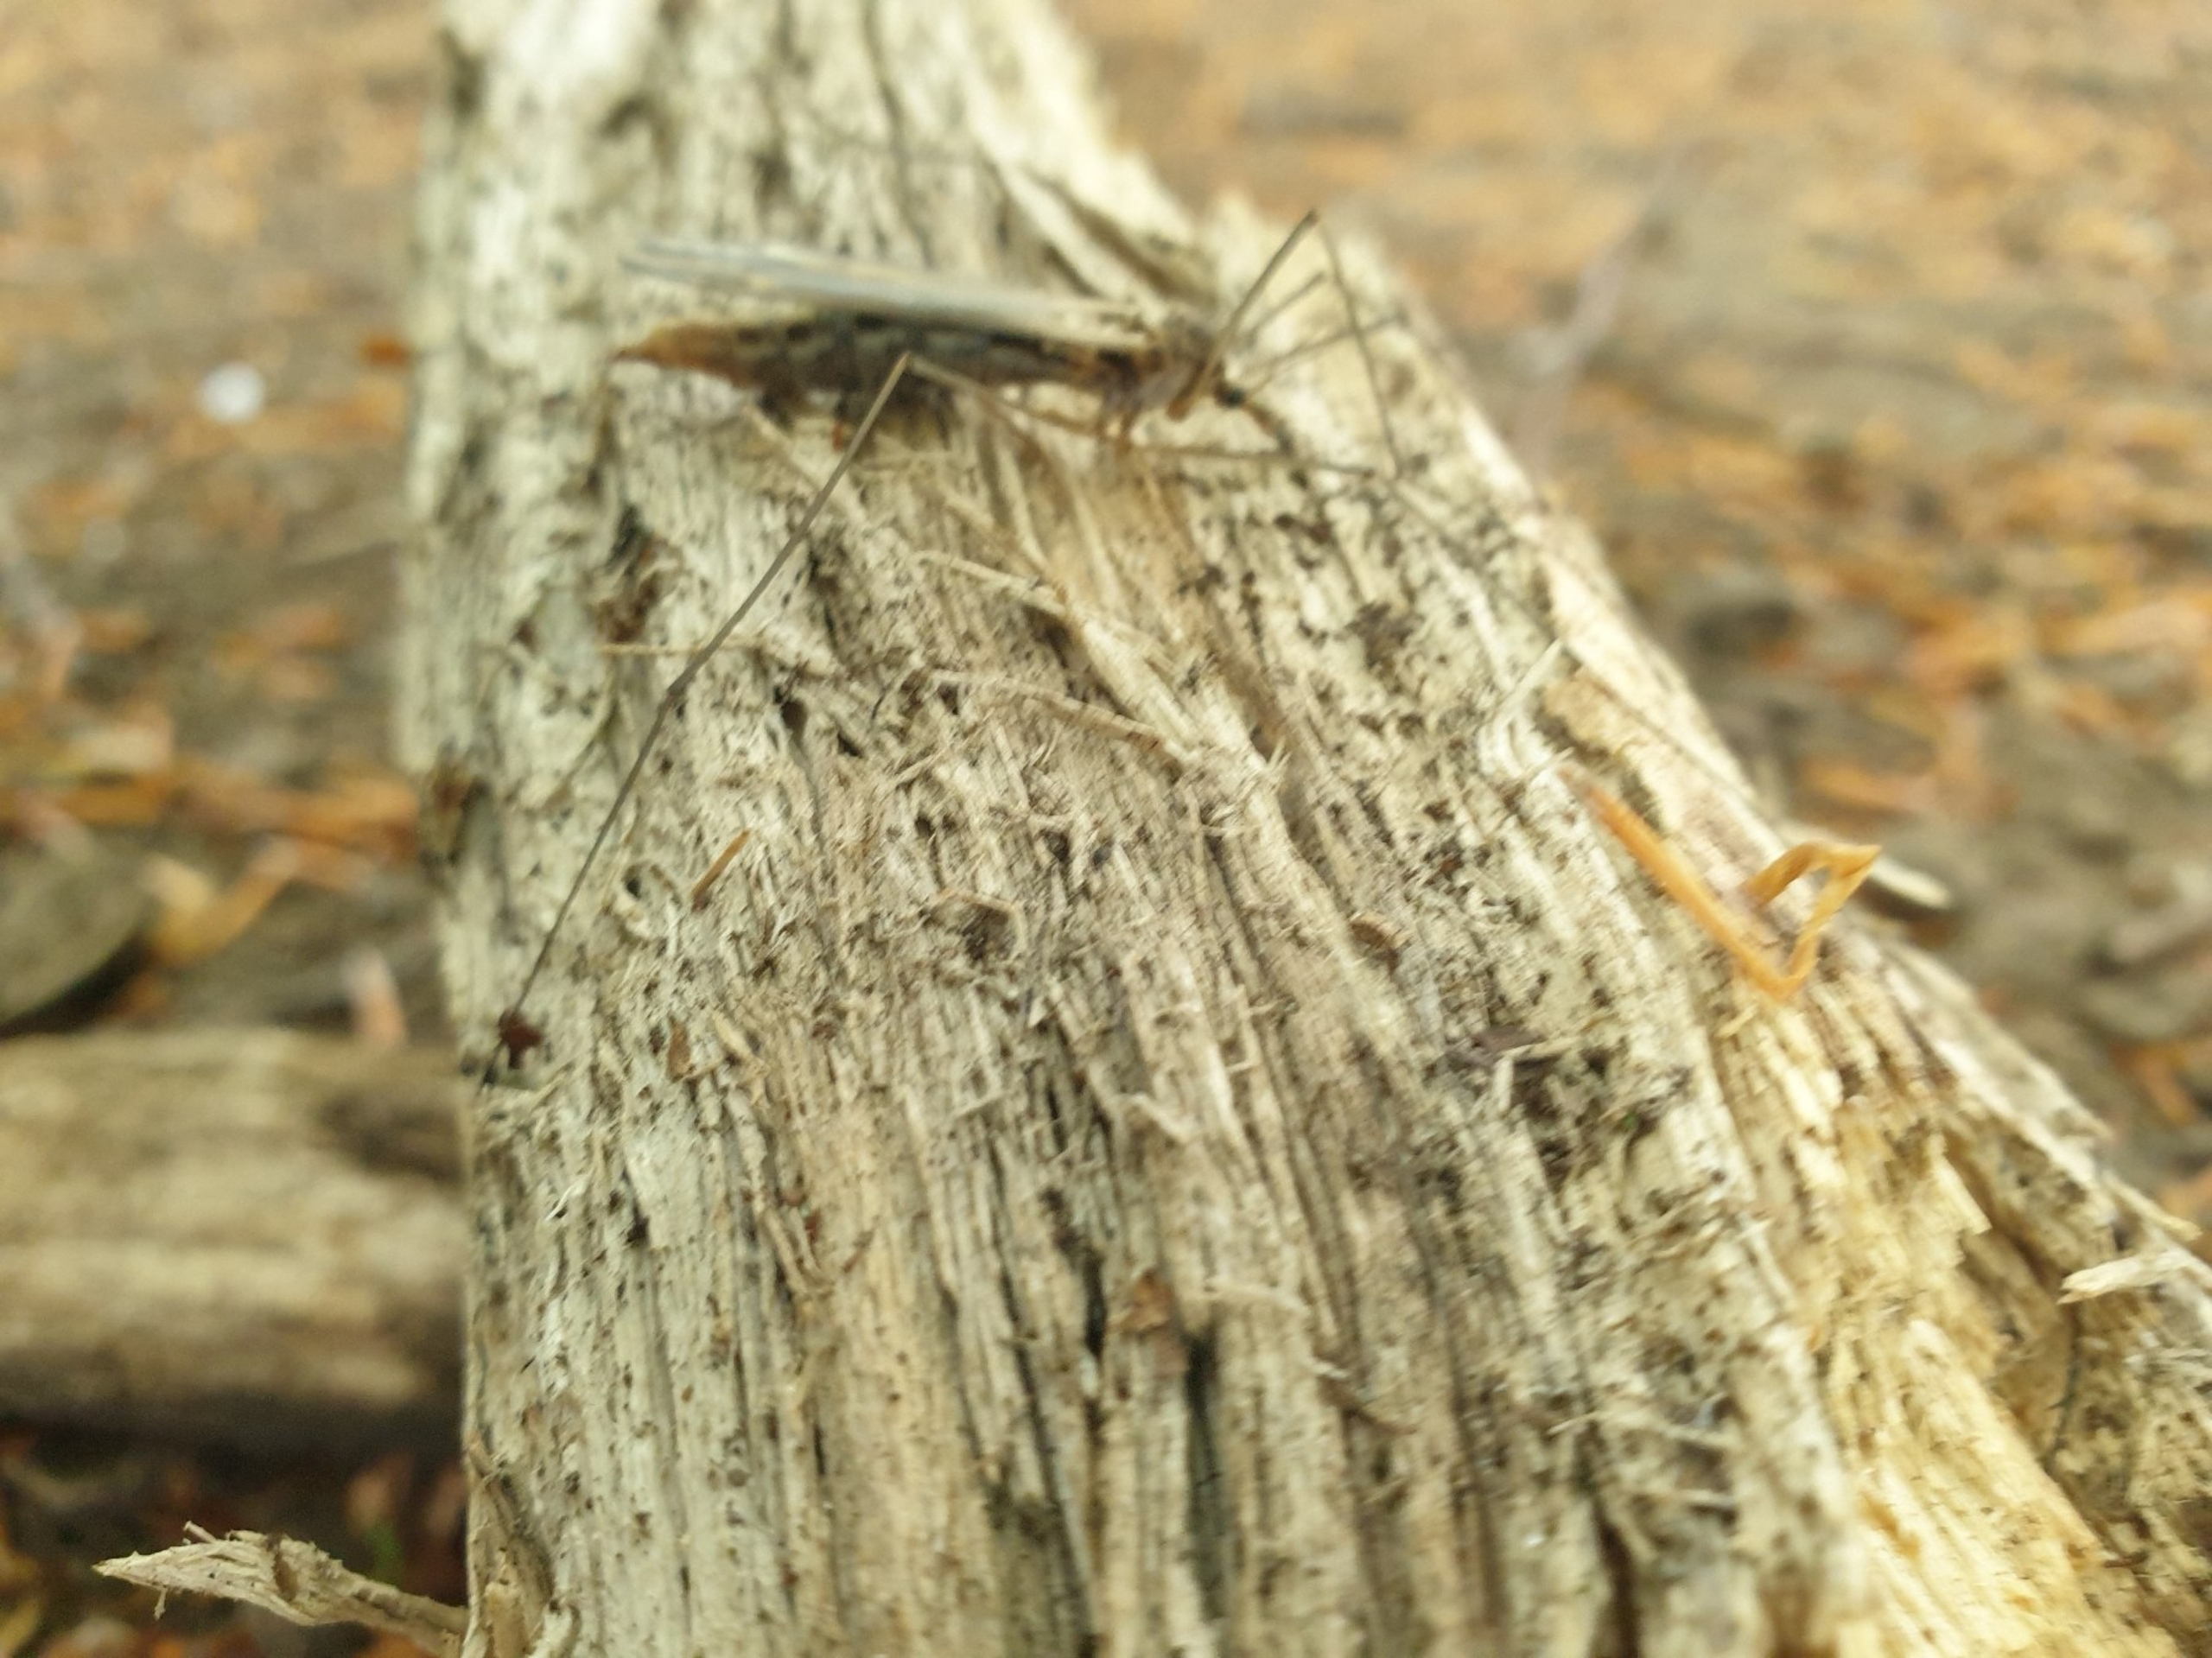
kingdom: Animalia
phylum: Arthropoda
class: Insecta
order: Diptera
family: Tipulidae
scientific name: Tipulidae
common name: Stankelben
